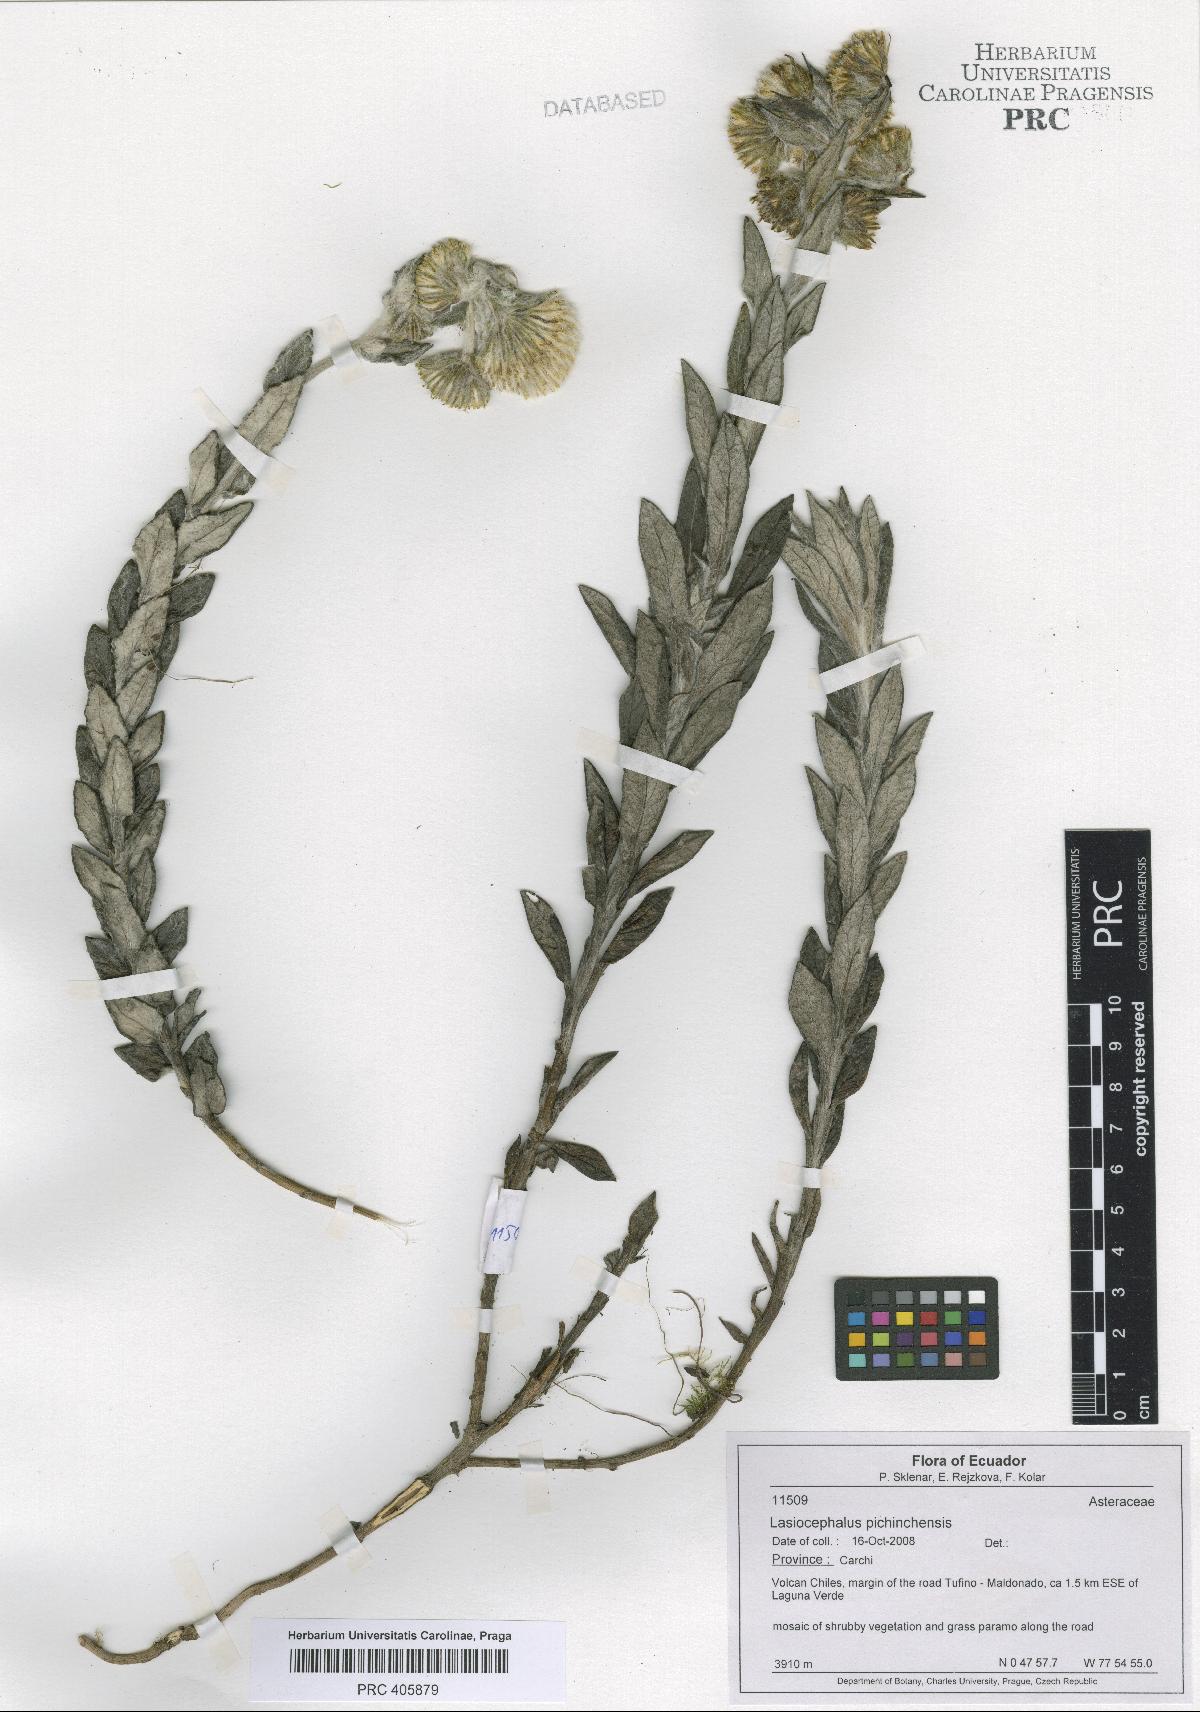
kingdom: Plantae
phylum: Tracheophyta
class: Magnoliopsida
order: Asterales
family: Asteraceae
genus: Lasiocephalus
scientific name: Lasiocephalus lingulatus
